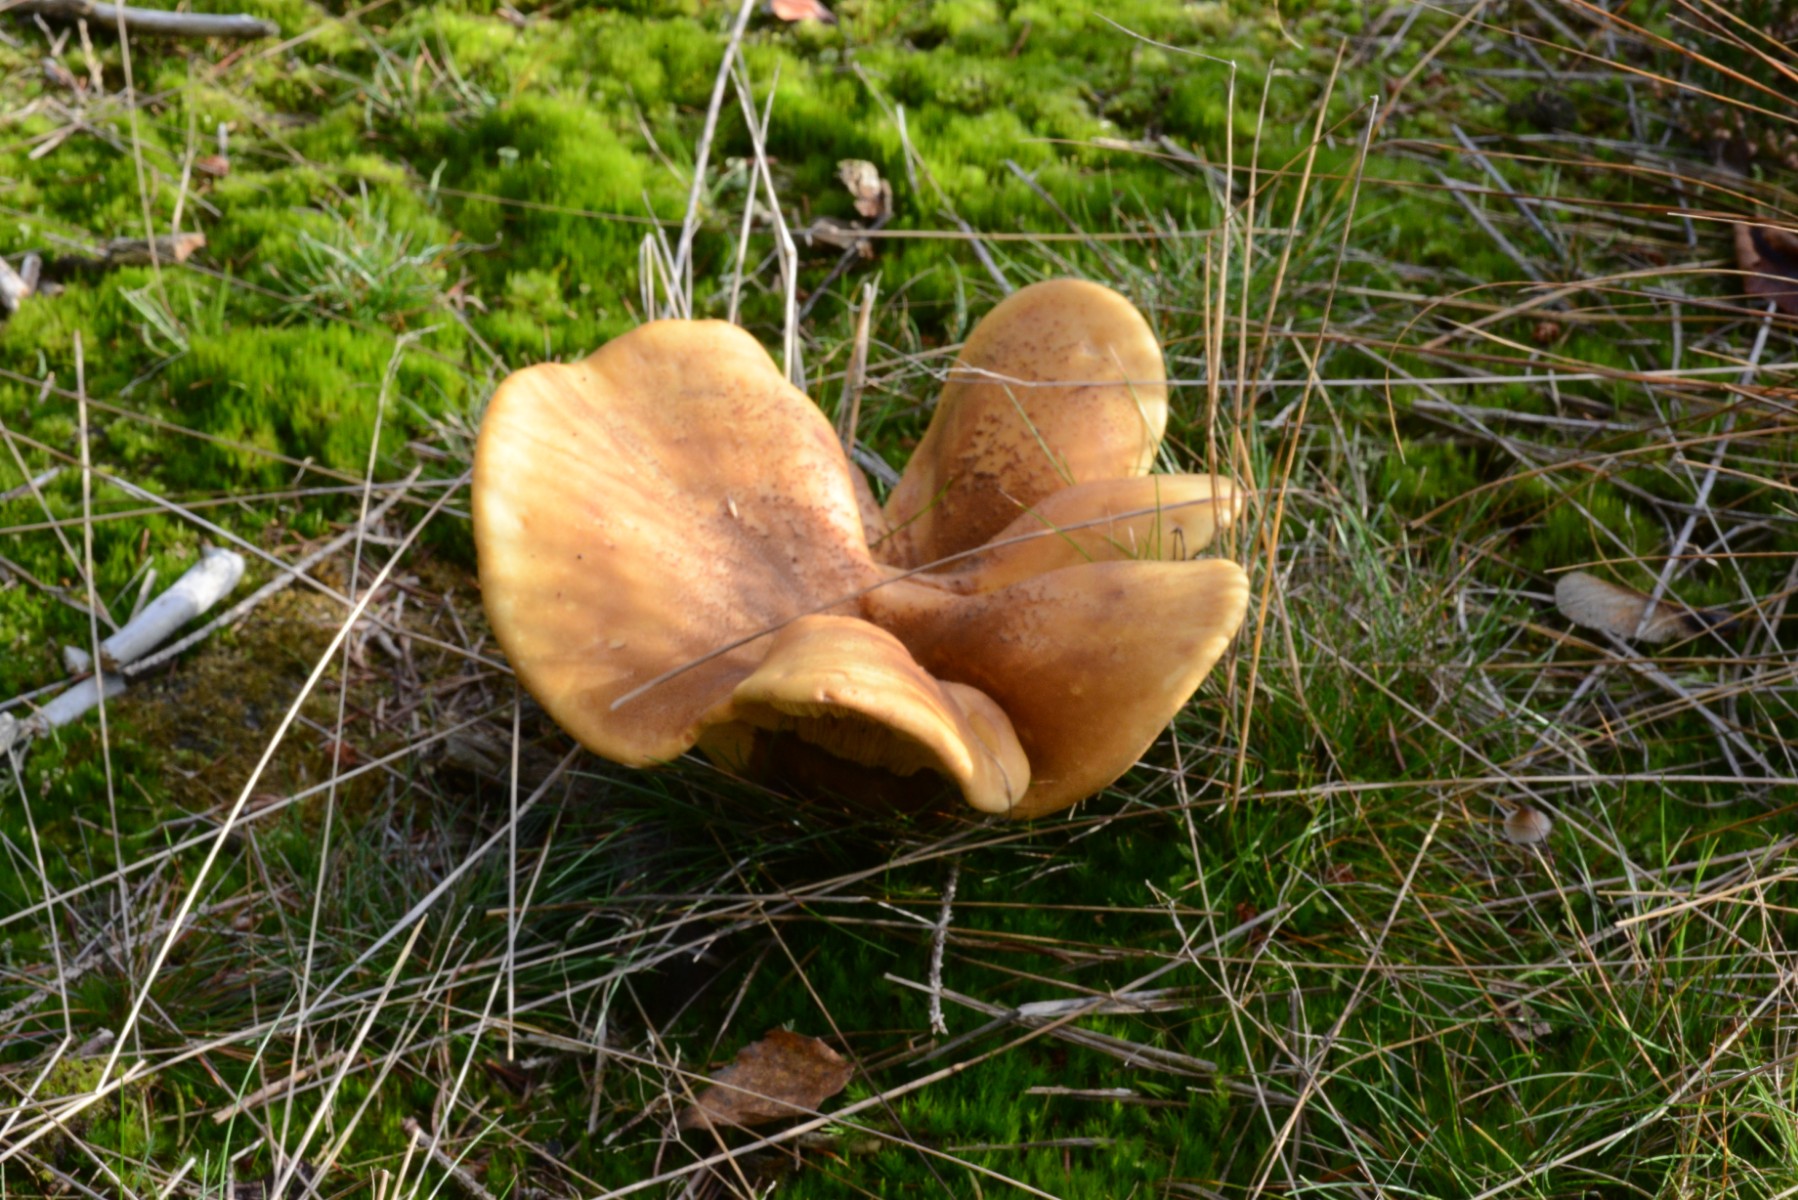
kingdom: Fungi
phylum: Basidiomycota
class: Agaricomycetes
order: Boletales
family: Tapinellaceae
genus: Tapinella
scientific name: Tapinella atrotomentosa
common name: sortfiltet viftesvamp
